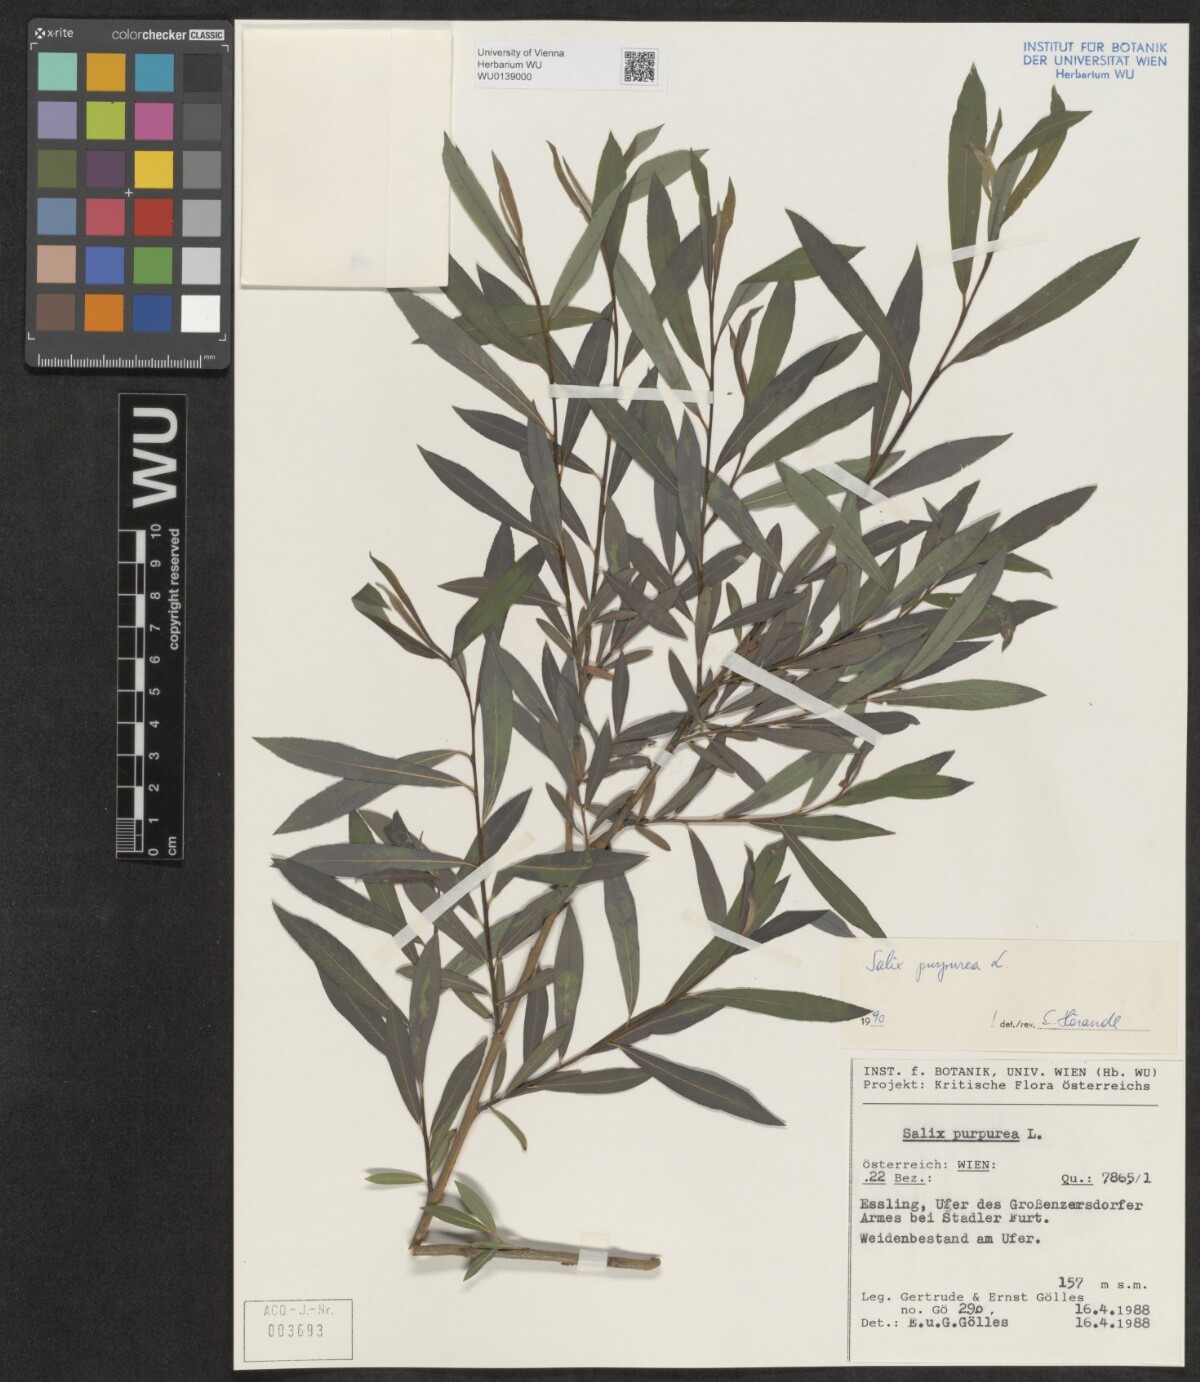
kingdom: Plantae
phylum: Tracheophyta
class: Magnoliopsida
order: Malpighiales
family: Salicaceae
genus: Salix
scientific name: Salix purpurea
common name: Purple willow
